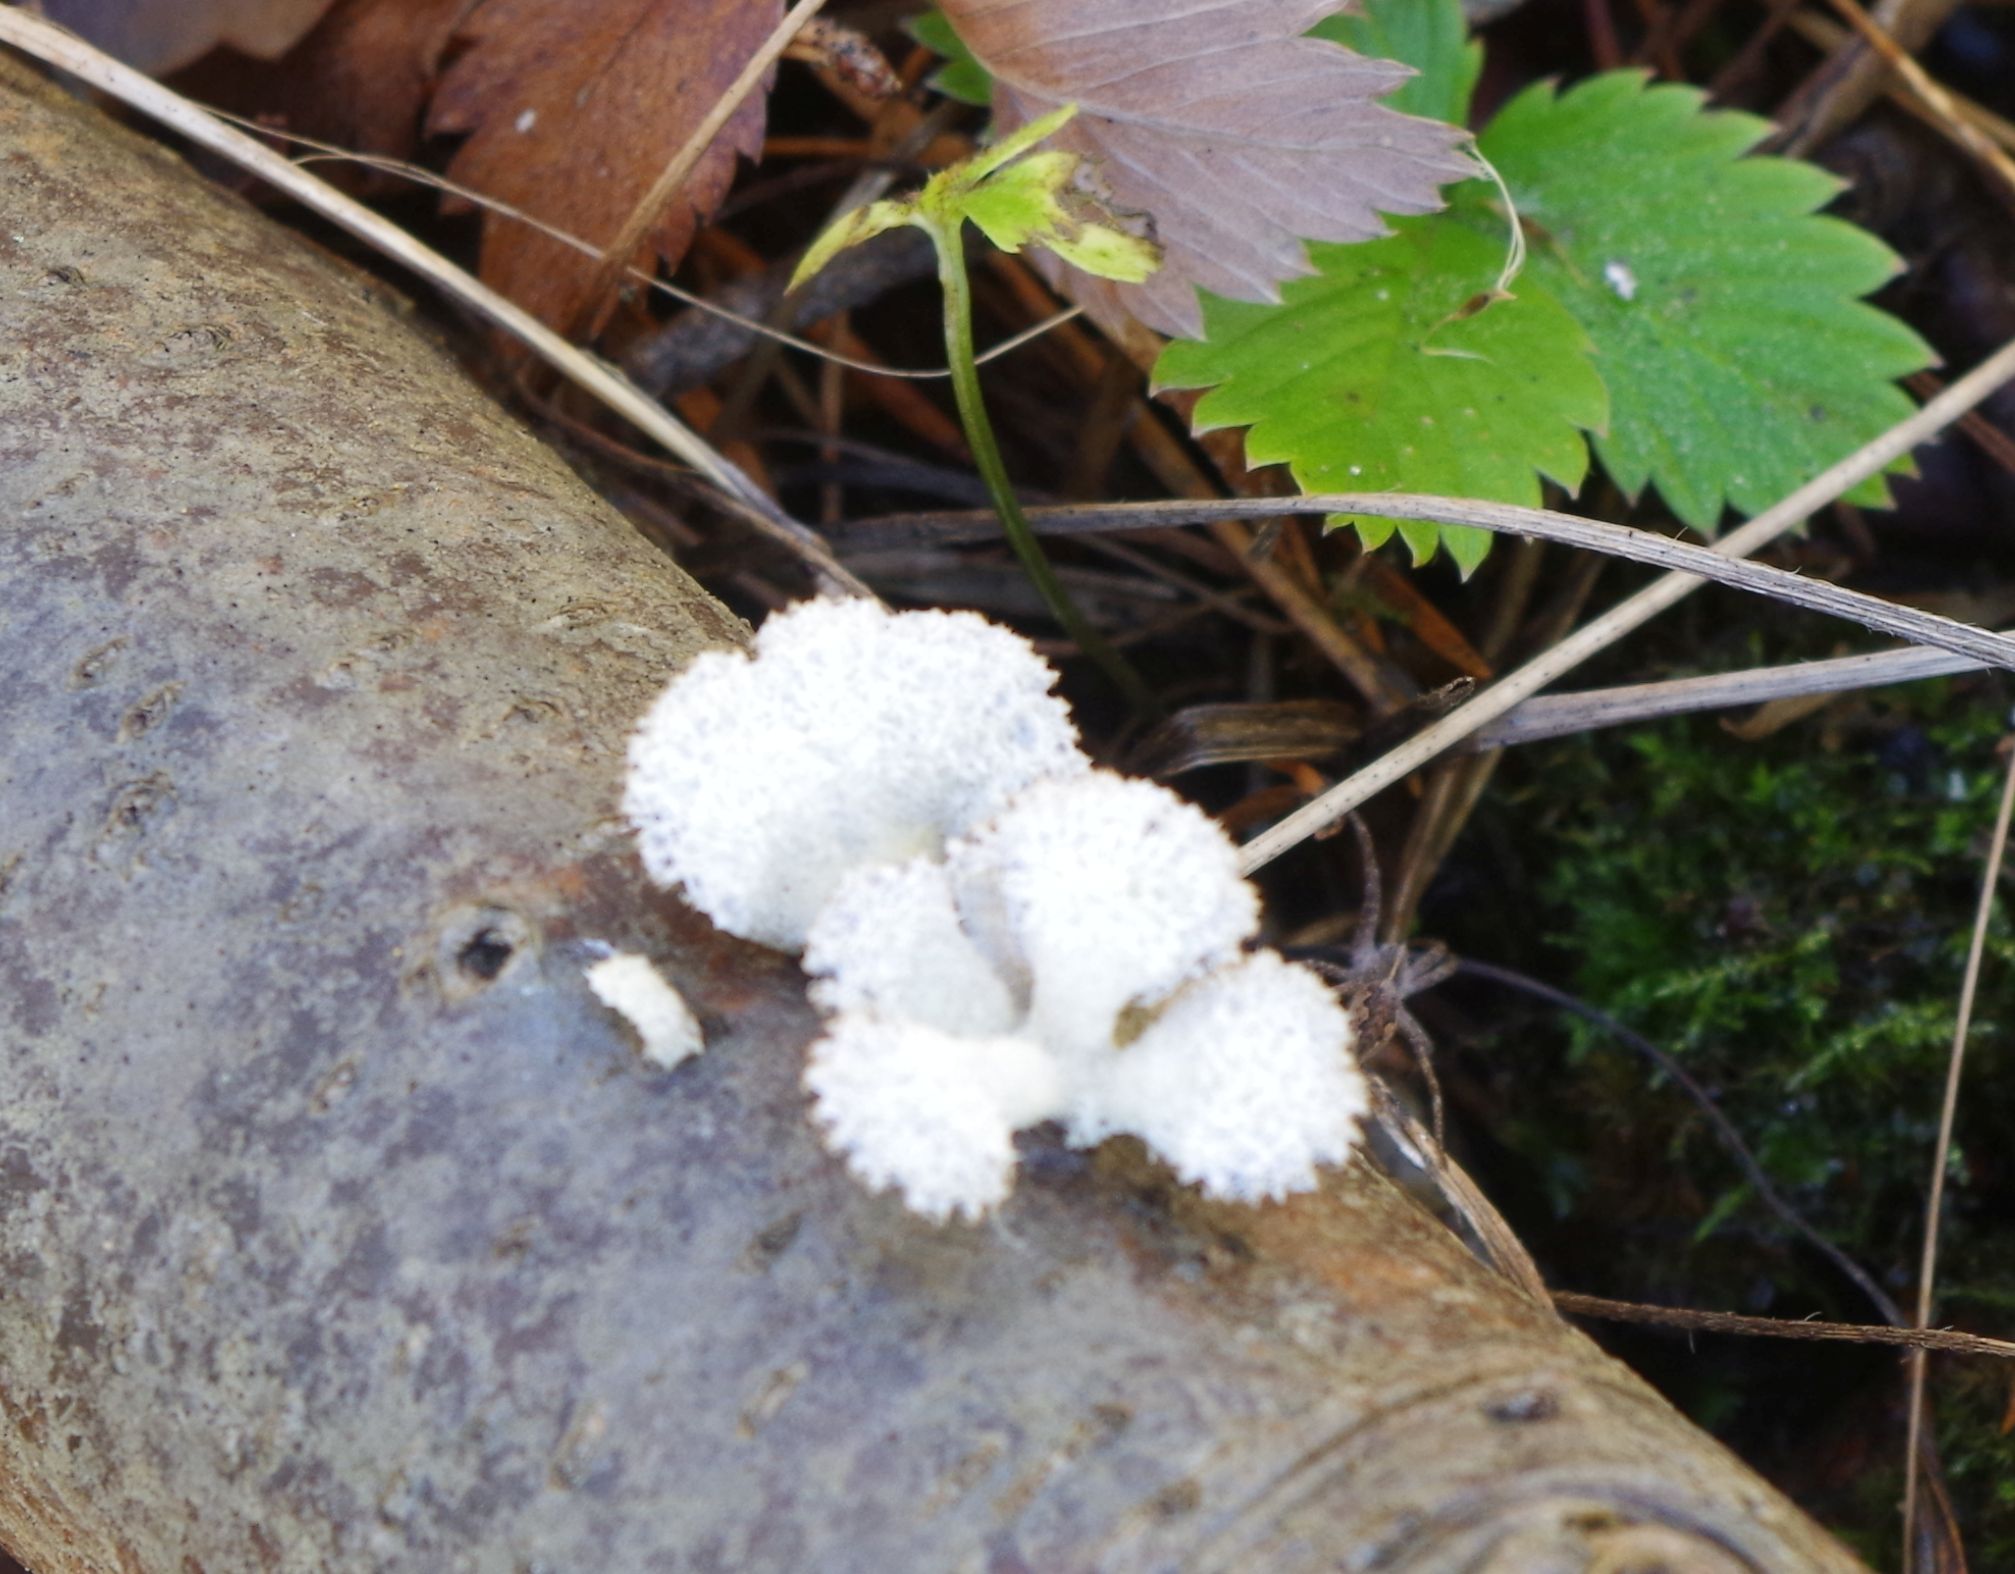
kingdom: Fungi
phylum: Basidiomycota
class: Agaricomycetes
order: Agaricales
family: Schizophyllaceae
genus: Schizophyllum
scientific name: Schizophyllum commune
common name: Common porecrust
